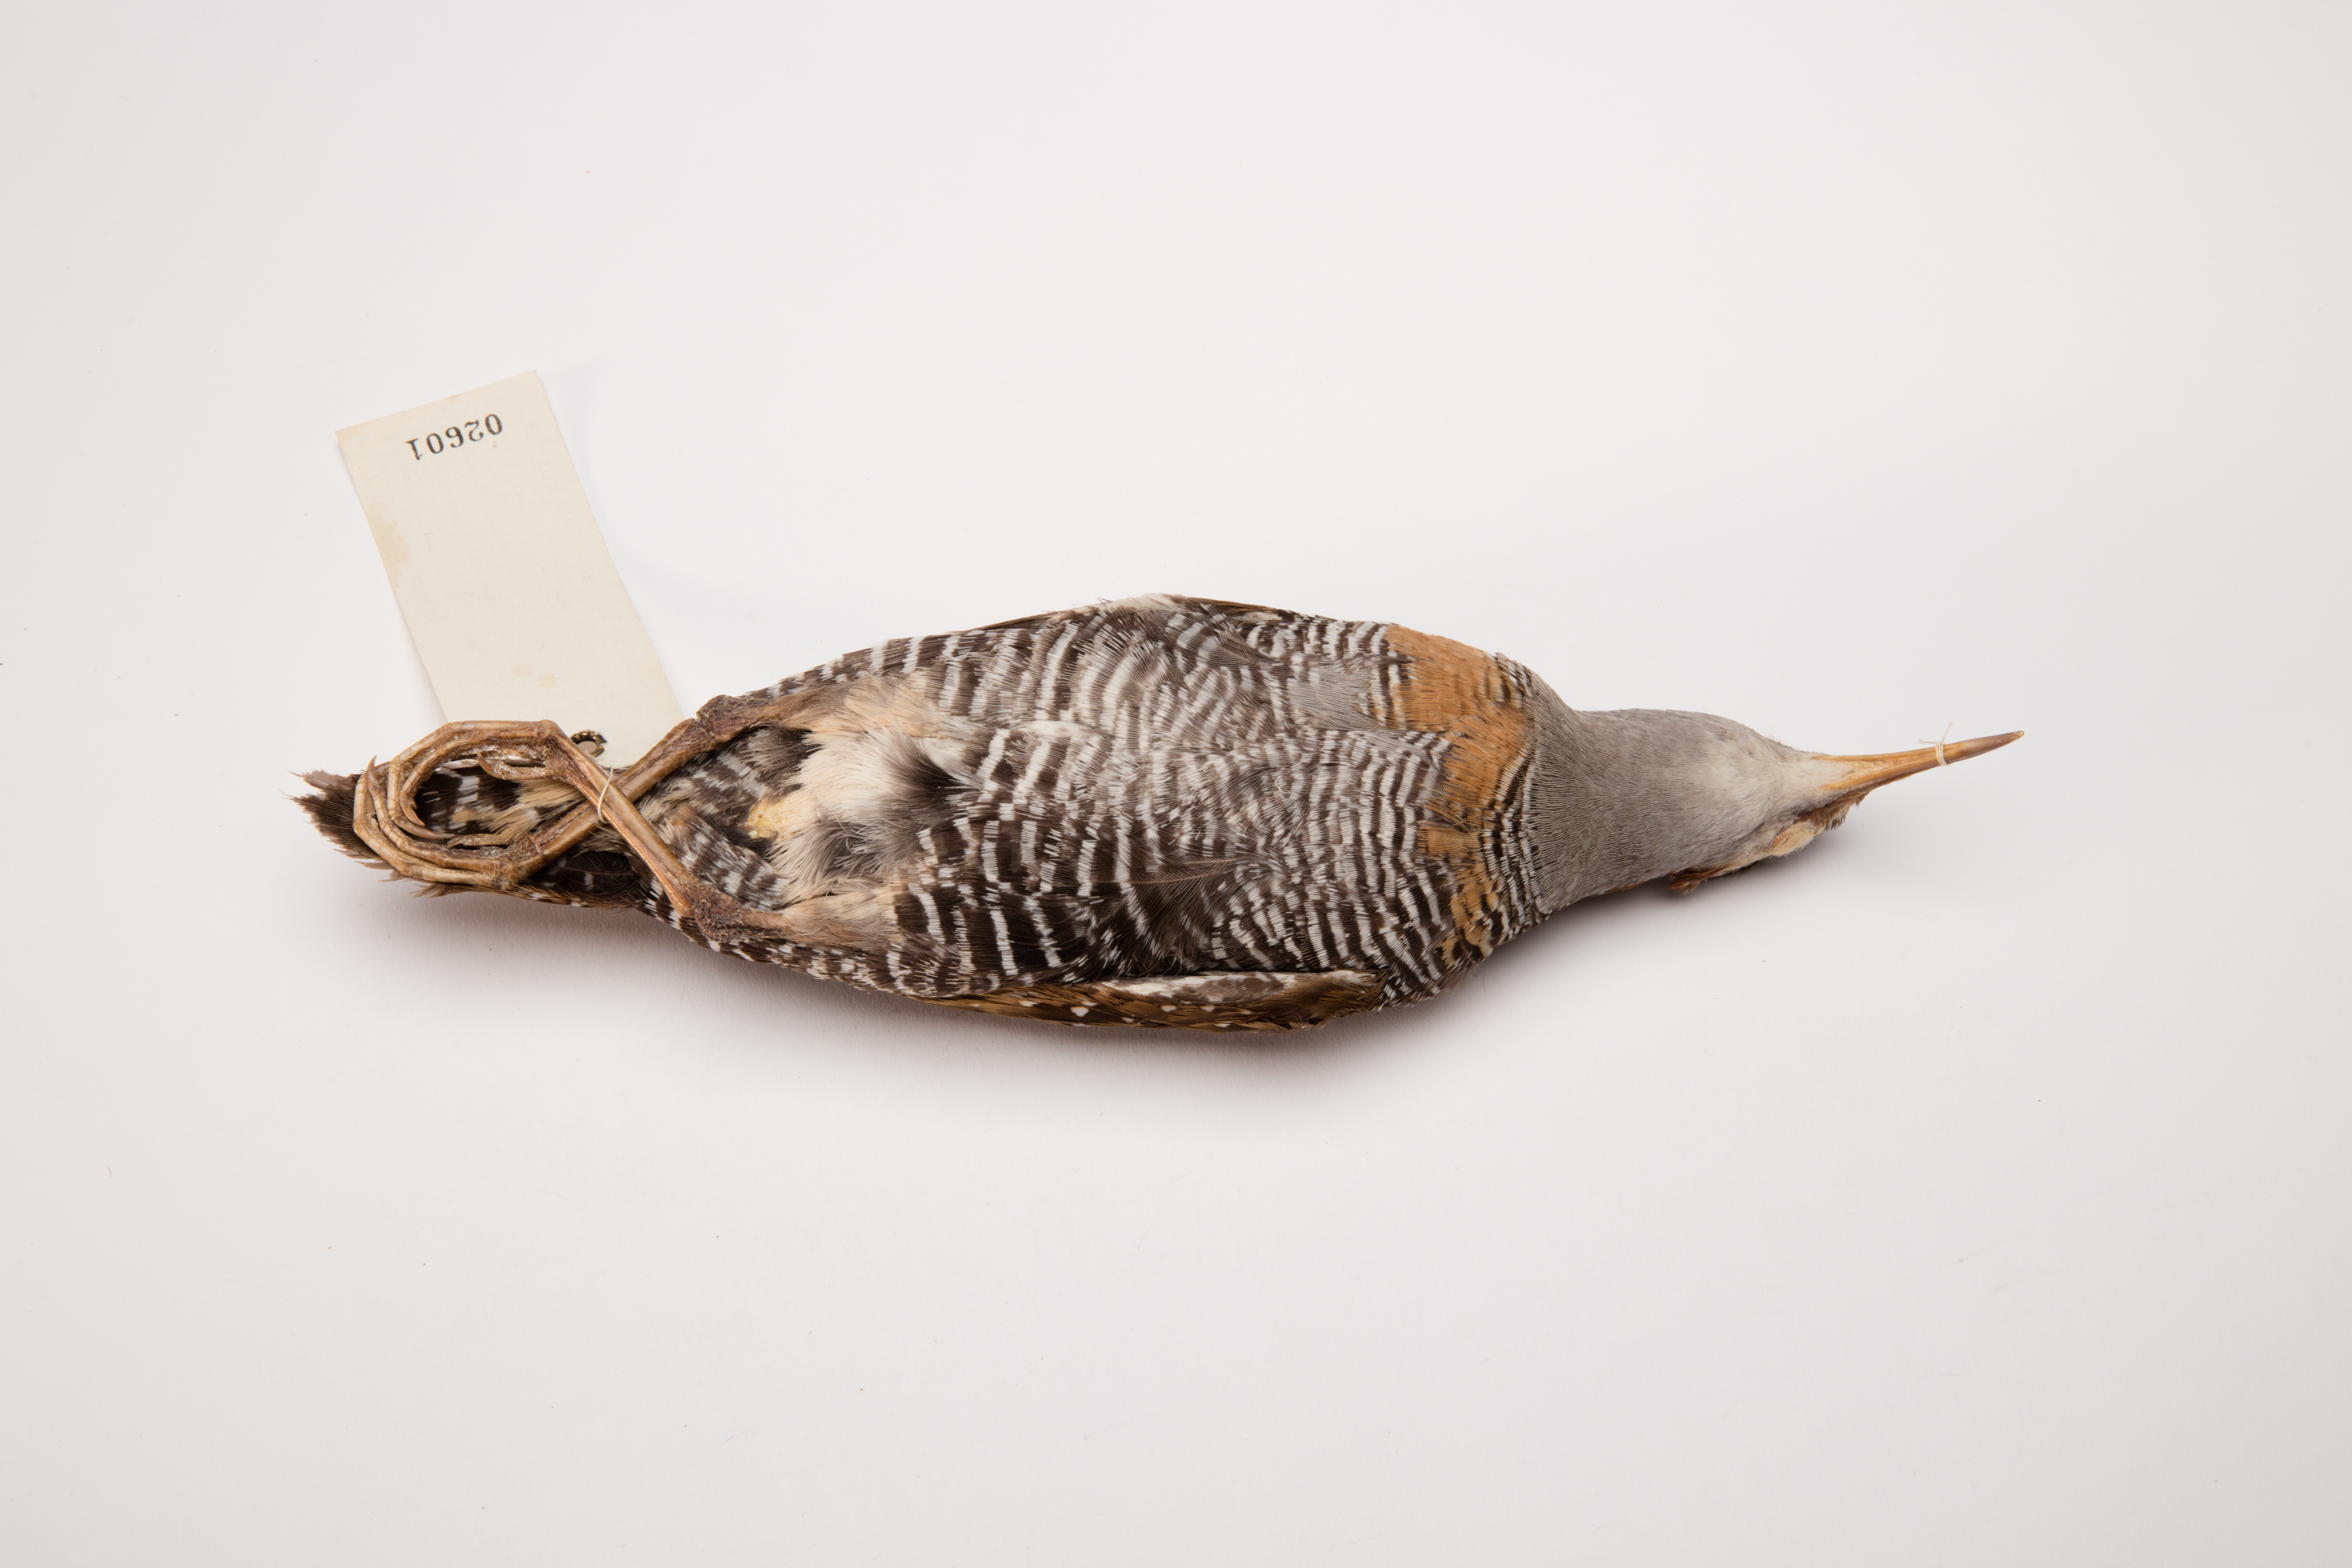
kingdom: Animalia
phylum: Chordata
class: Aves
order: Gruiformes
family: Rallidae
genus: Gallirallus
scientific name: Gallirallus philippensis
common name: Buff-banded rail
